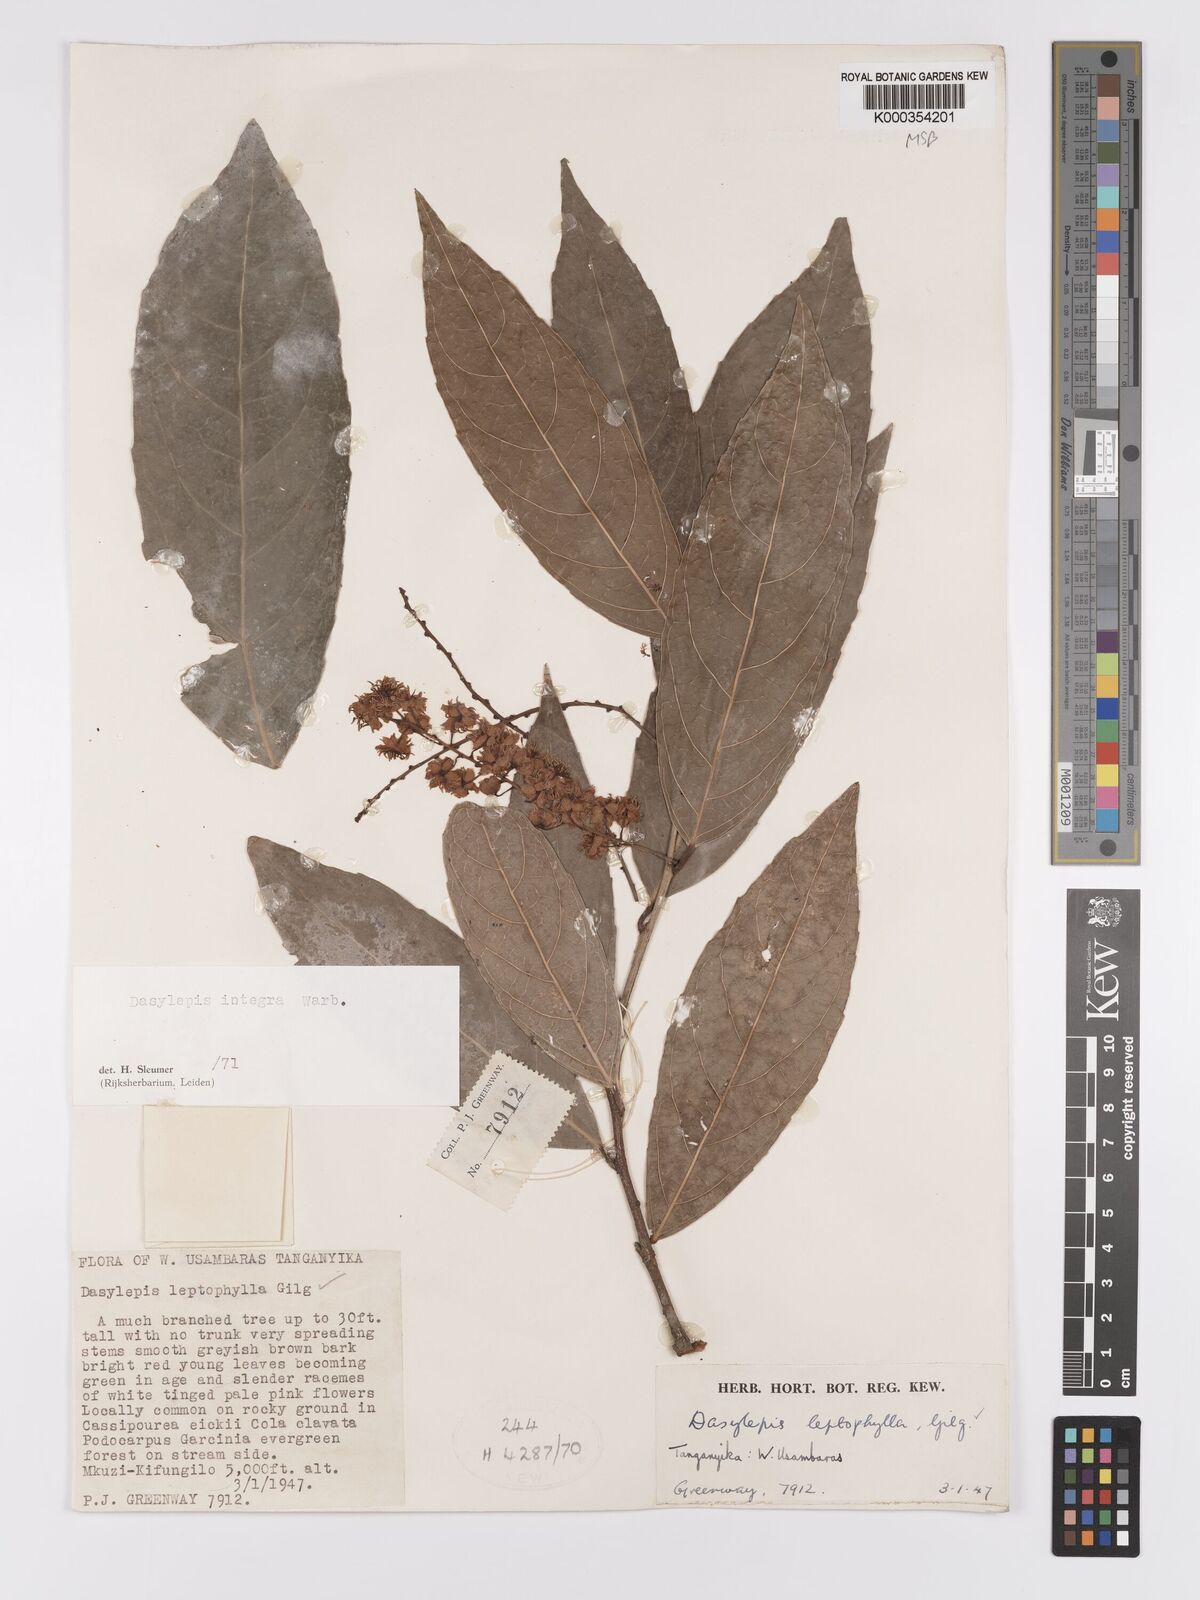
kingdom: Plantae
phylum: Tracheophyta
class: Magnoliopsida
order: Malpighiales
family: Achariaceae
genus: Dasylepis
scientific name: Dasylepis integra
